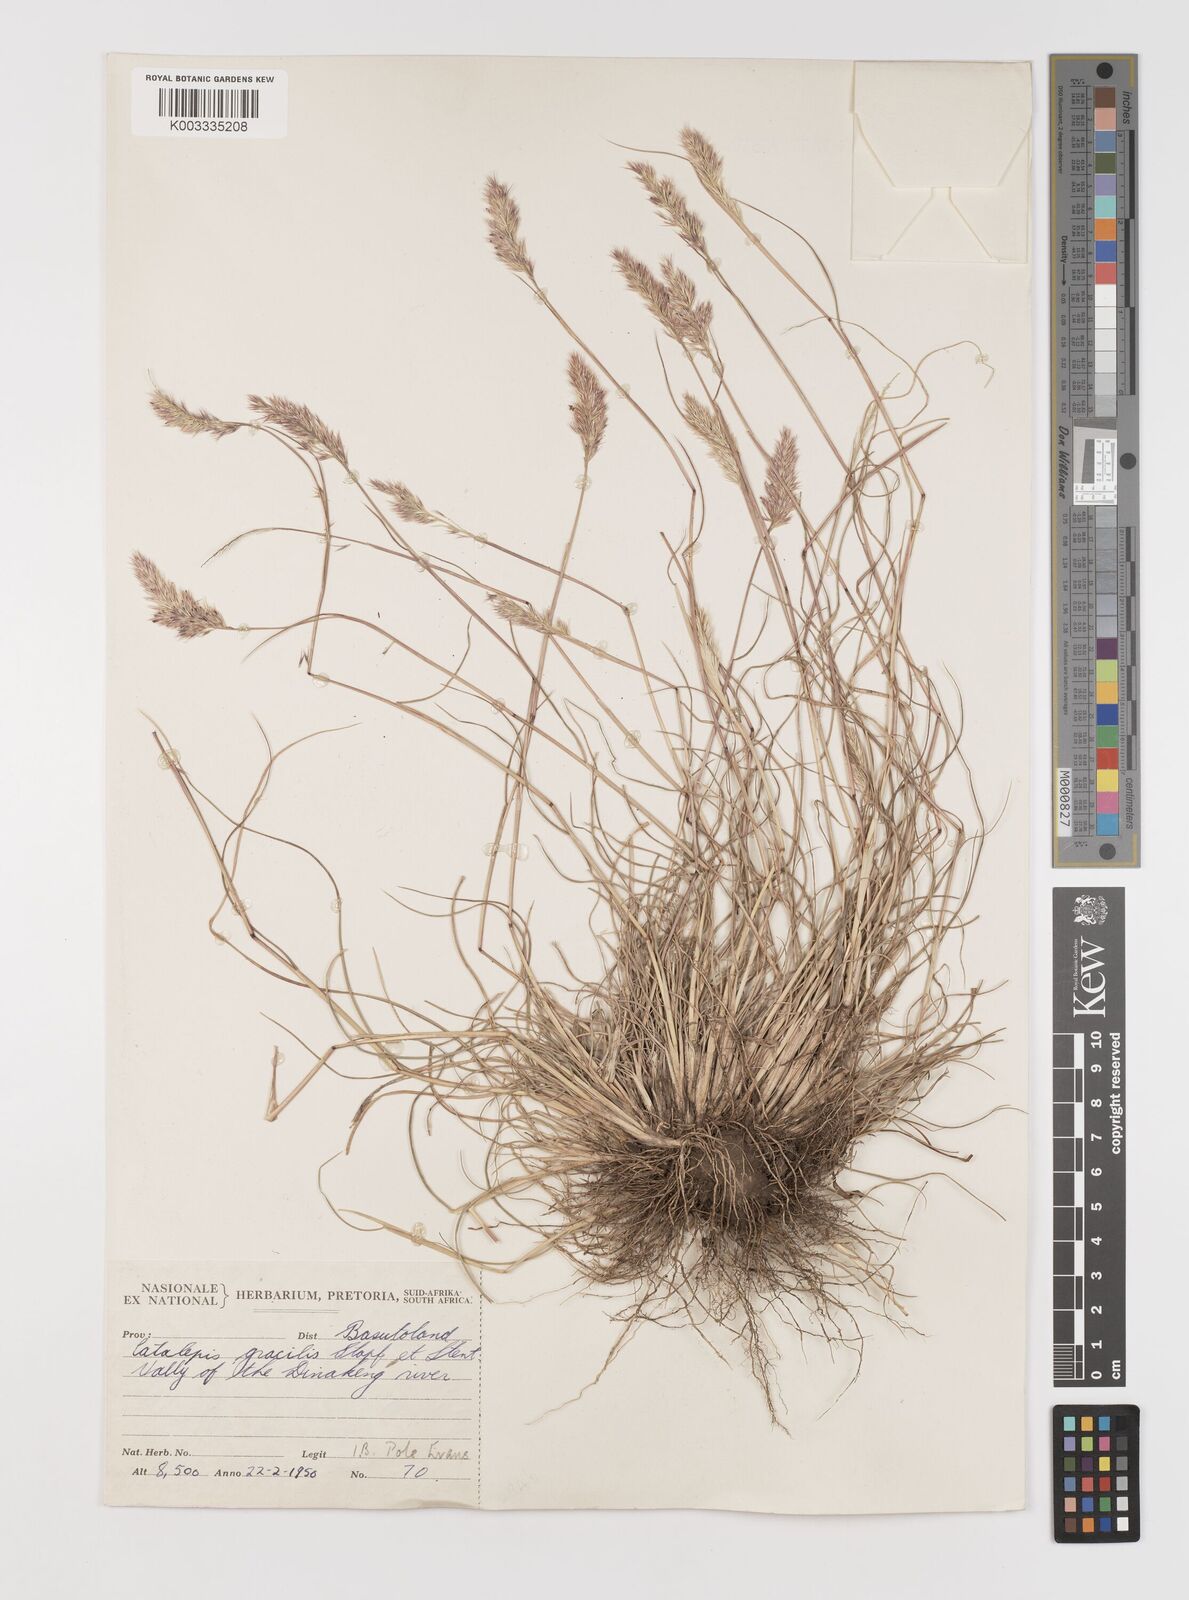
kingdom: Plantae
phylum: Tracheophyta
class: Liliopsida
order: Poales
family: Poaceae
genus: Catalepis
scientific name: Catalepis gracilis
